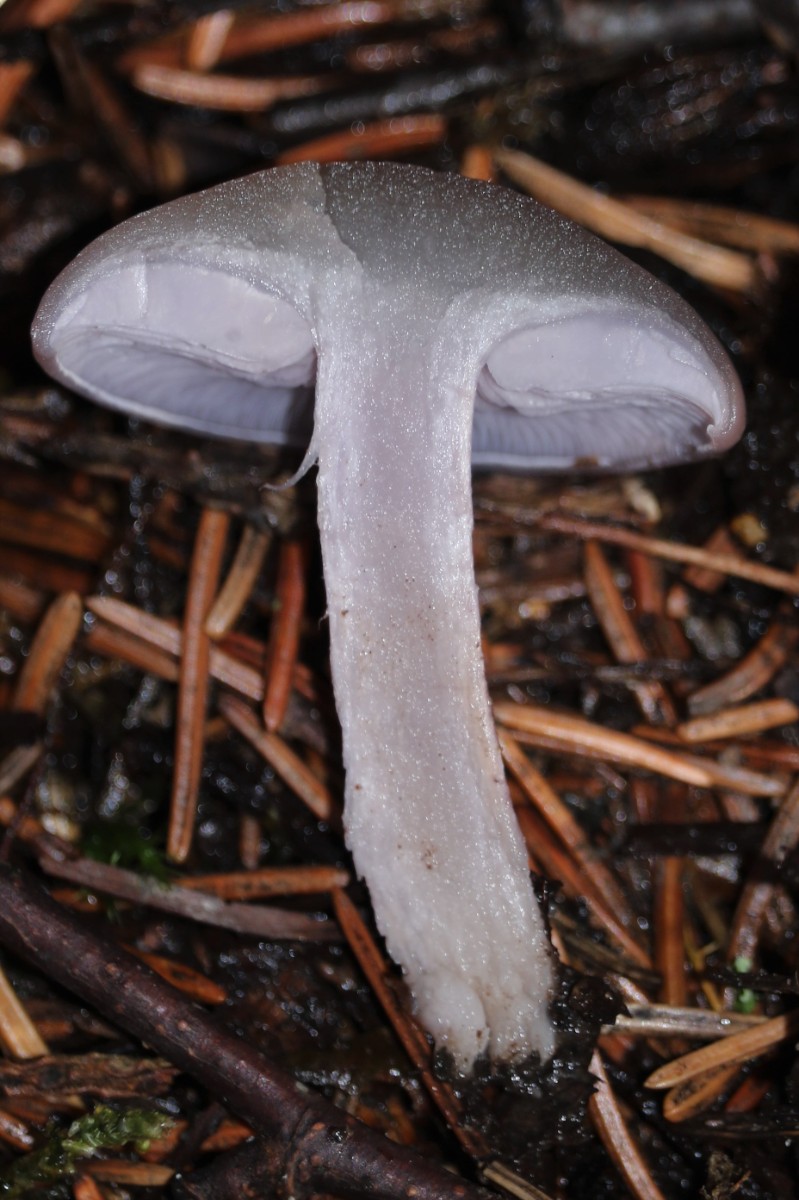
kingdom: Fungi
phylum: Basidiomycota
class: Agaricomycetes
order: Agaricales
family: Tricholomataceae
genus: Lepista
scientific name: Lepista nuda
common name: violet hekseringshat
